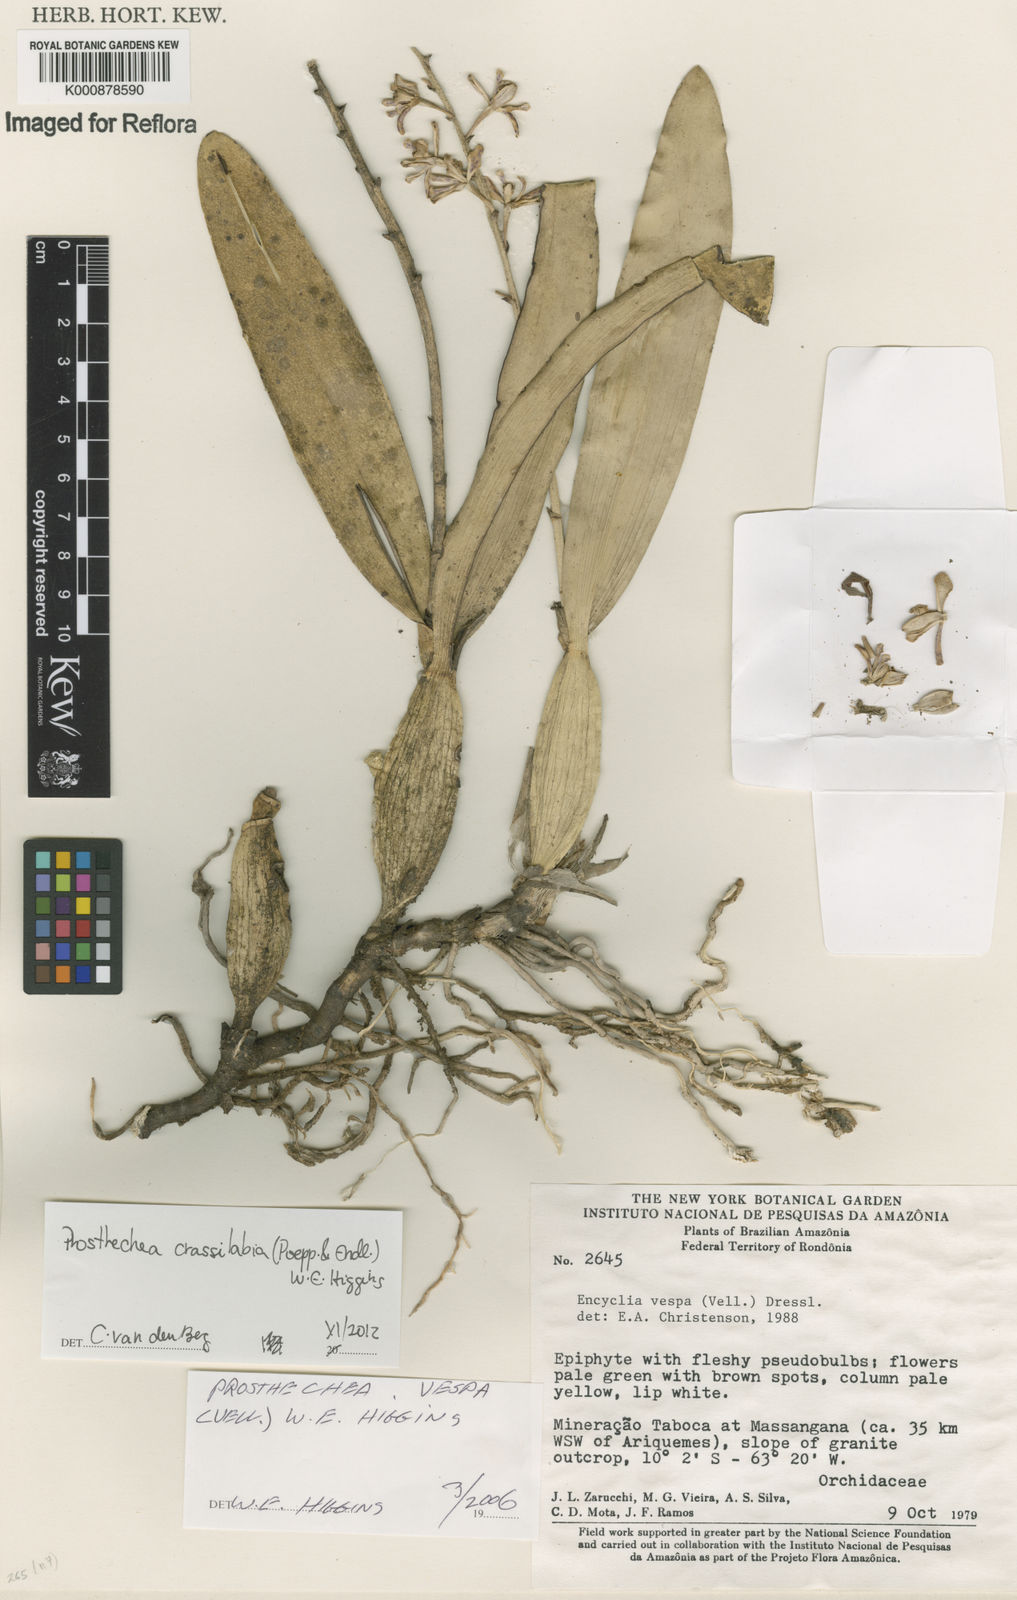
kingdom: Plantae
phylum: Tracheophyta
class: Liliopsida
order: Asparagales
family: Orchidaceae
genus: Prosthechea
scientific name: Prosthechea
